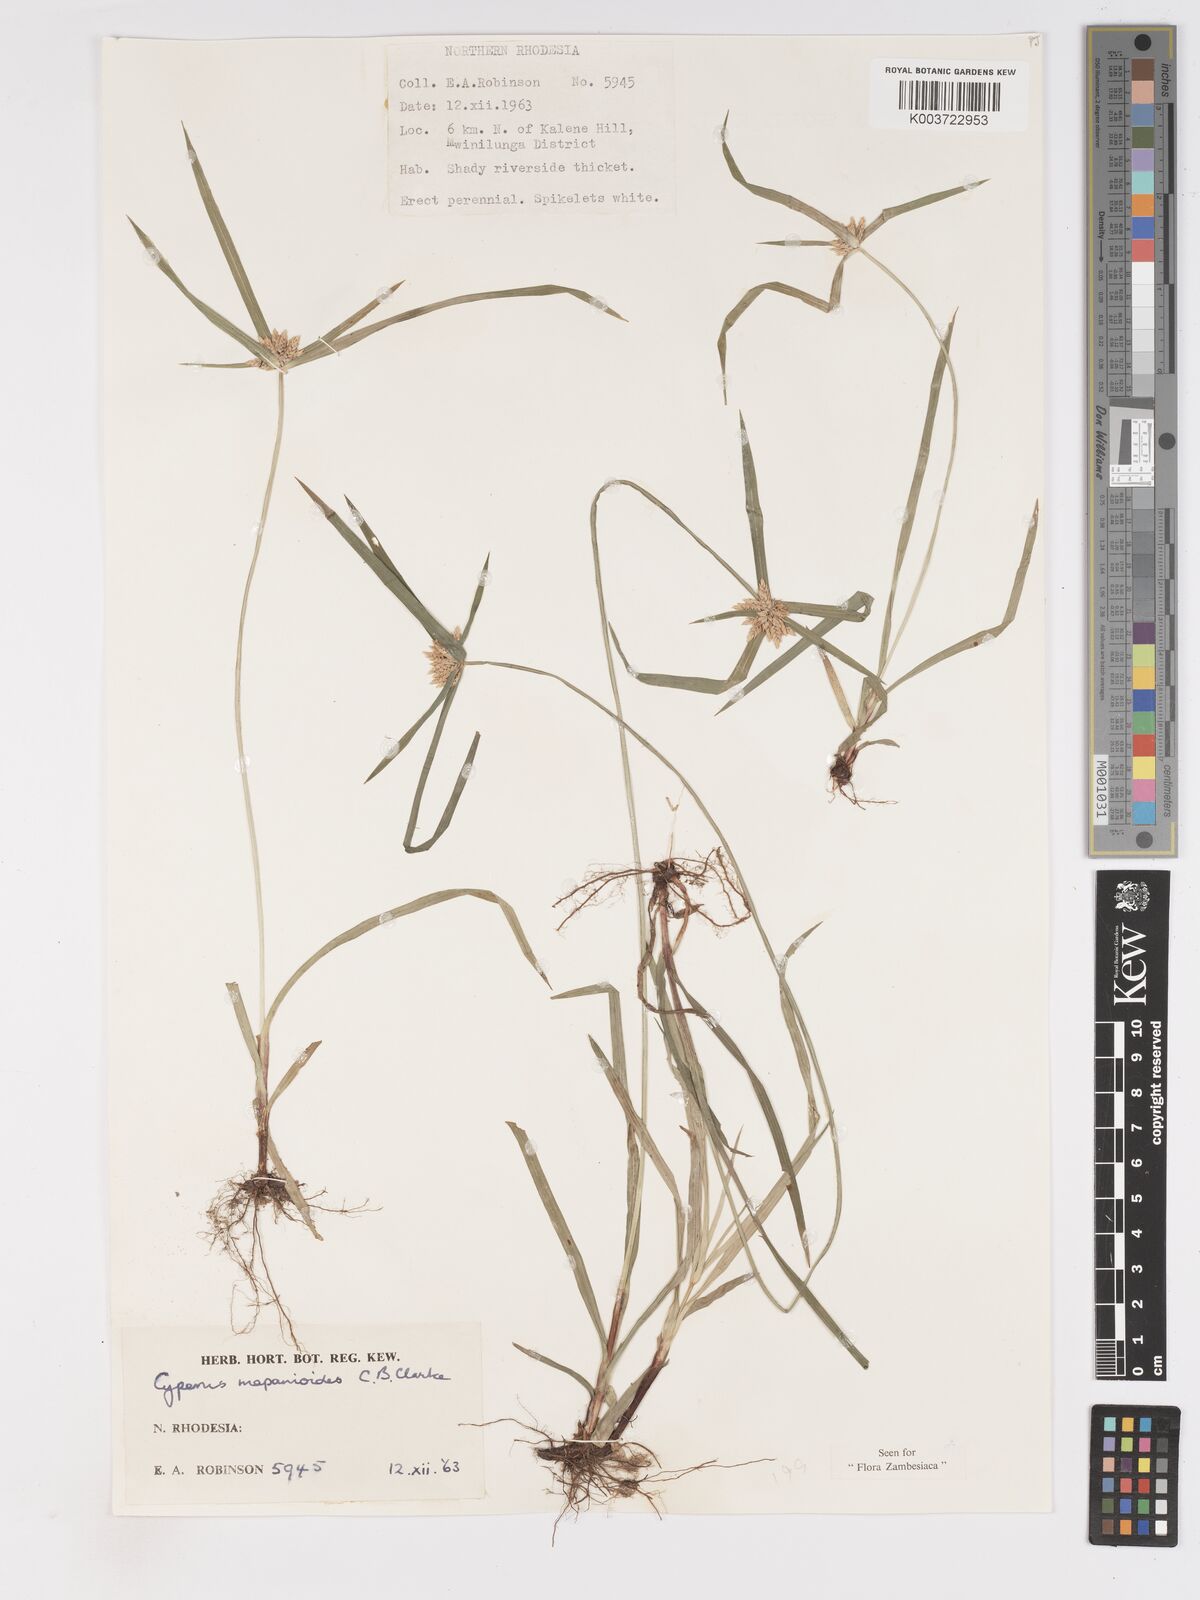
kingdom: Plantae
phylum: Tracheophyta
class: Liliopsida
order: Poales
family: Cyperaceae
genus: Cyperus
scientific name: Cyperus mapanioides
